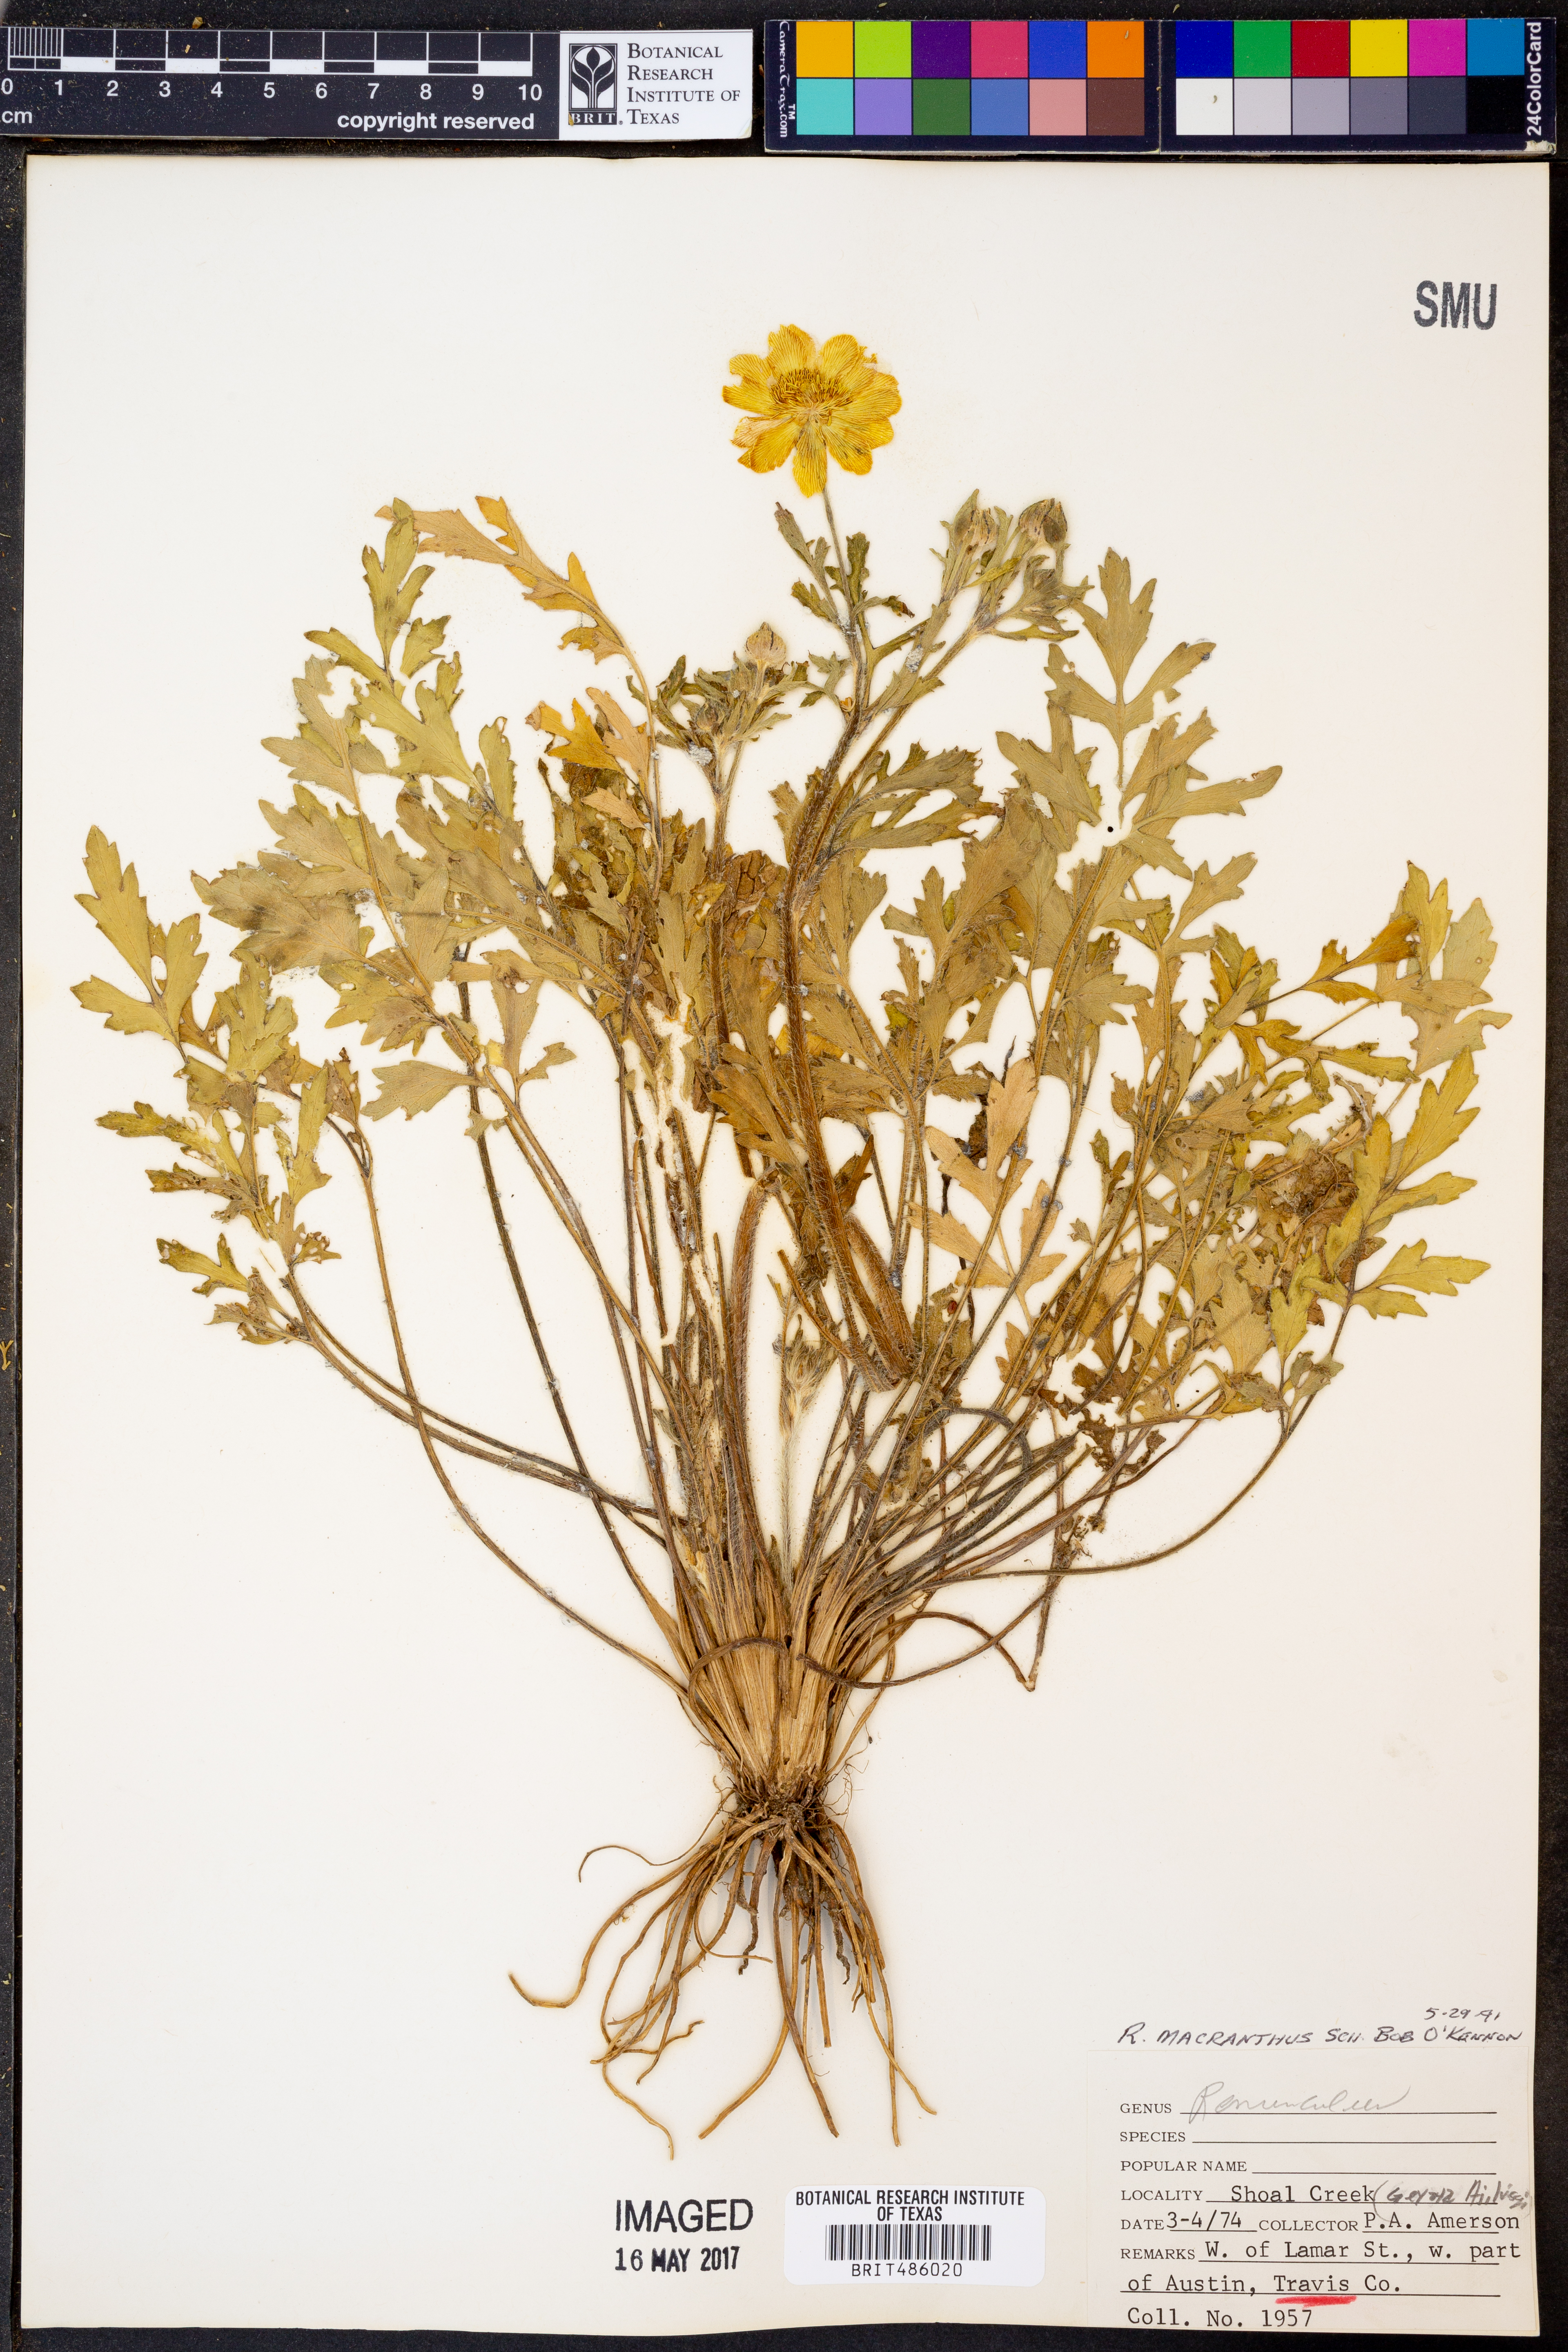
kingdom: Plantae
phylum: Tracheophyta
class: Magnoliopsida
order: Ranunculales
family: Ranunculaceae
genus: Ranunculus
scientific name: Ranunculus macranthus
